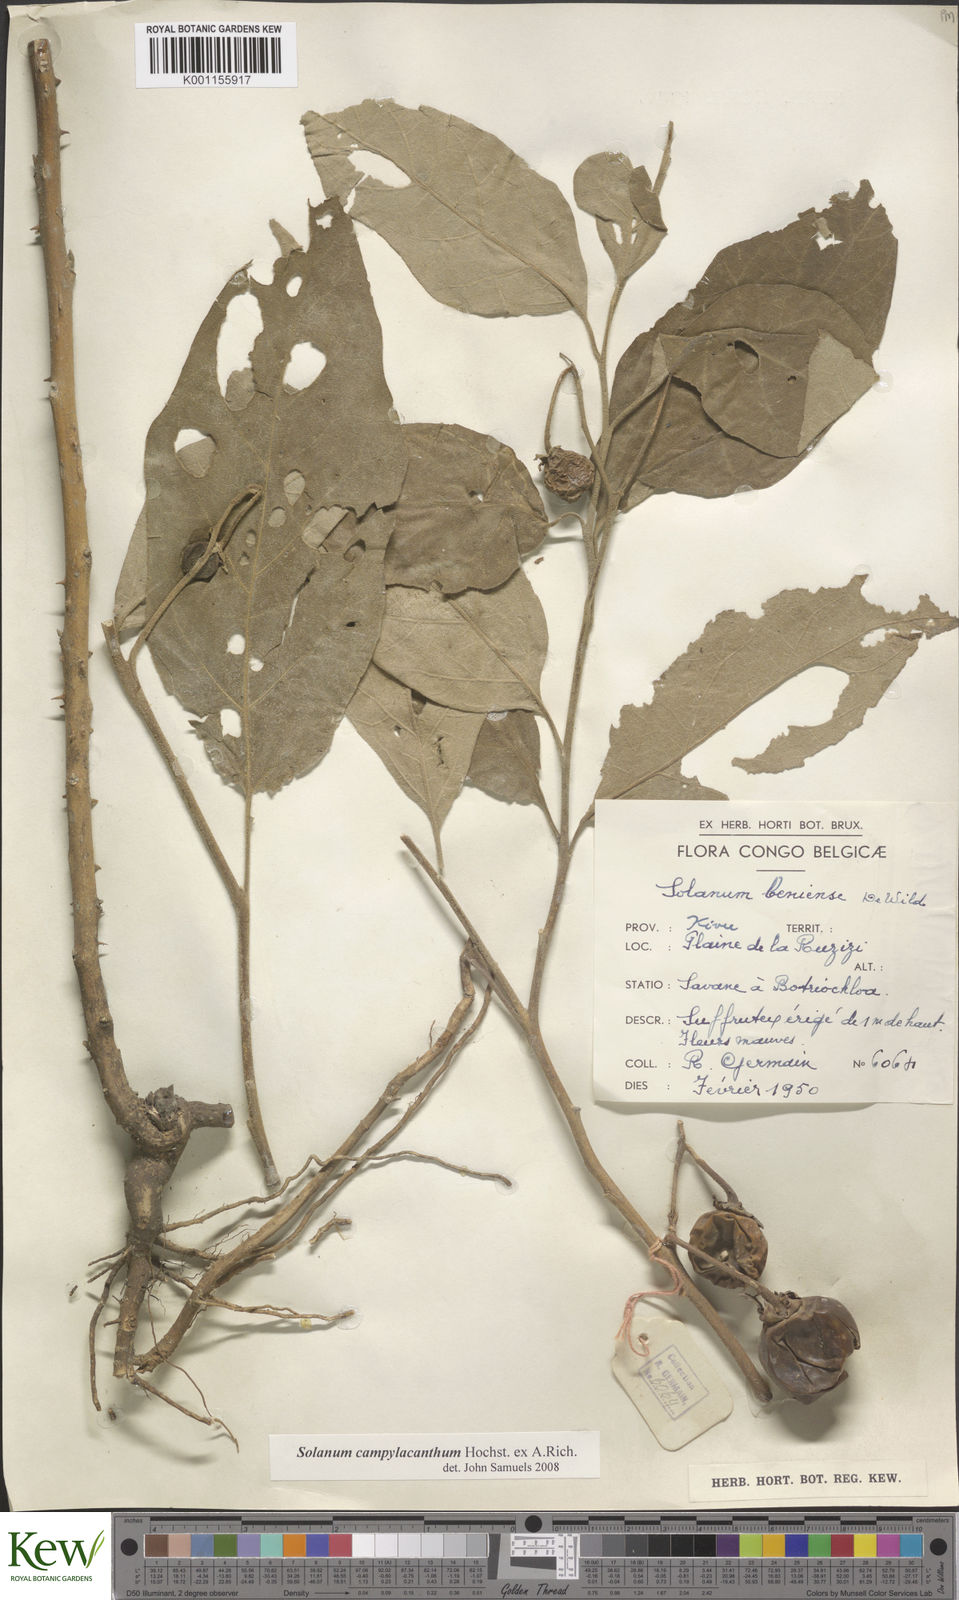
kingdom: Plantae
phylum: Tracheophyta
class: Magnoliopsida
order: Solanales
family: Solanaceae
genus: Solanum
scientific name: Solanum campylacanthum
